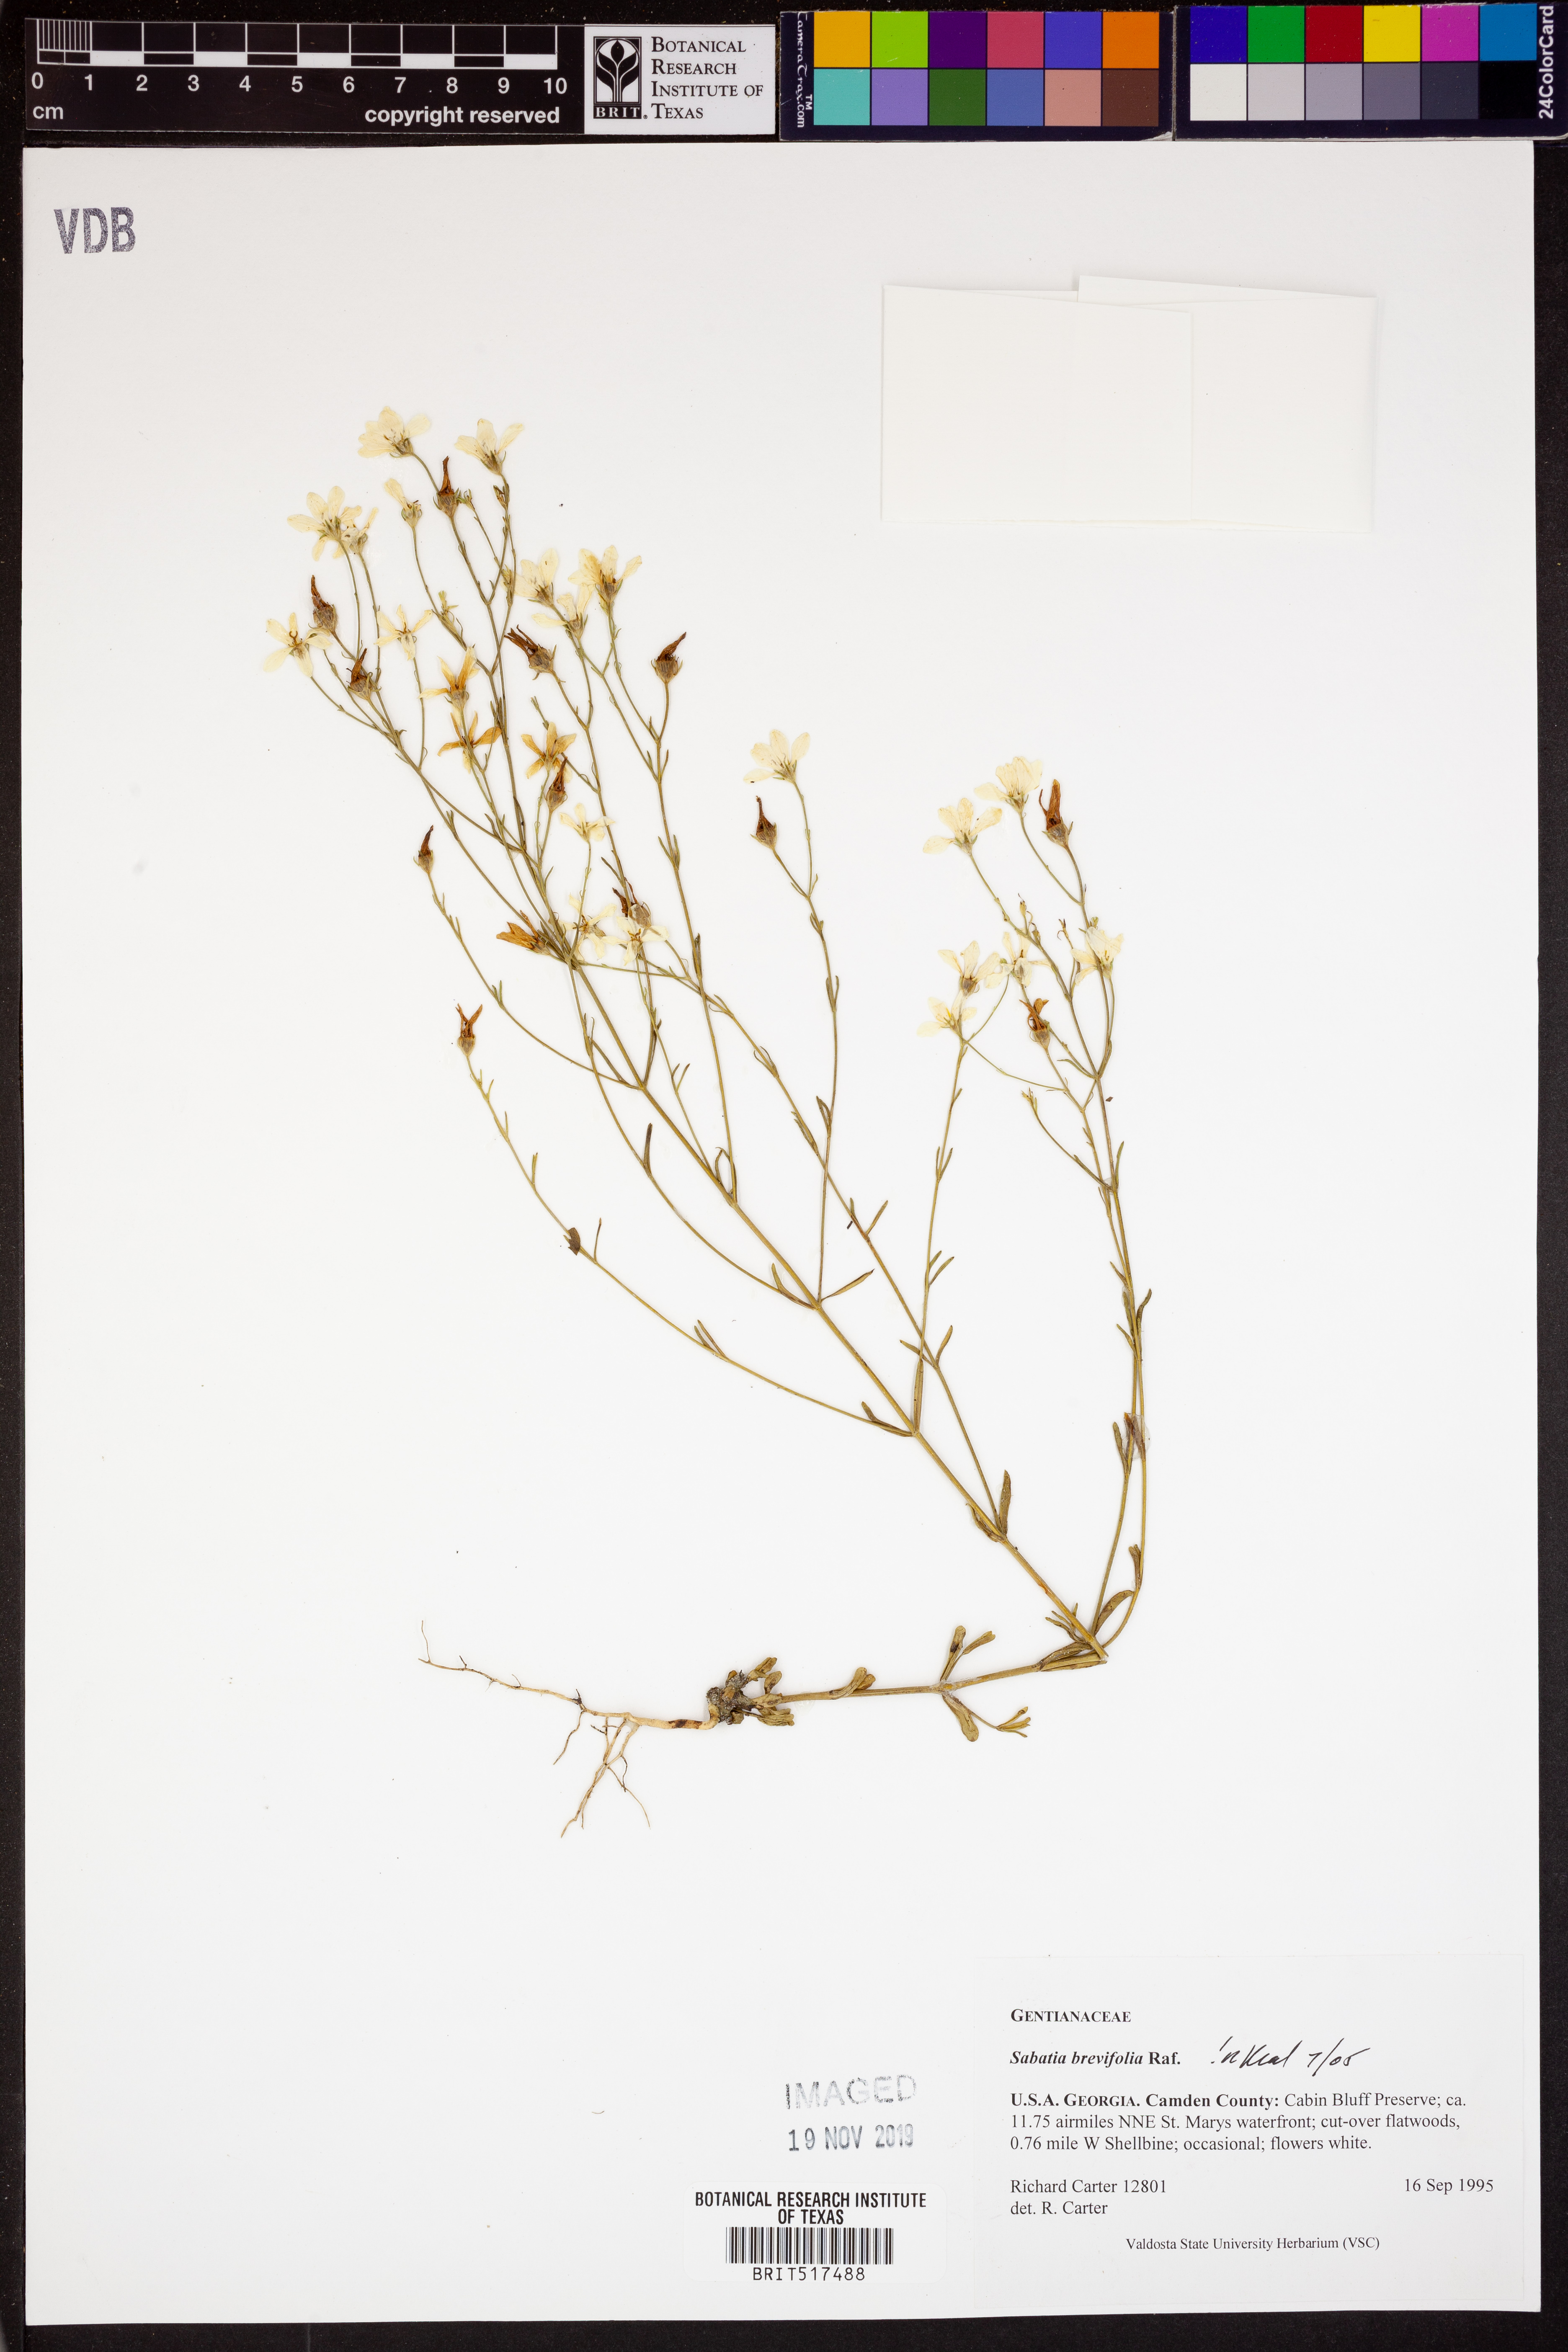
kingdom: Plantae
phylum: Tracheophyta
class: Magnoliopsida
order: Gentianales
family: Gentianaceae
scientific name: Gentianaceae
